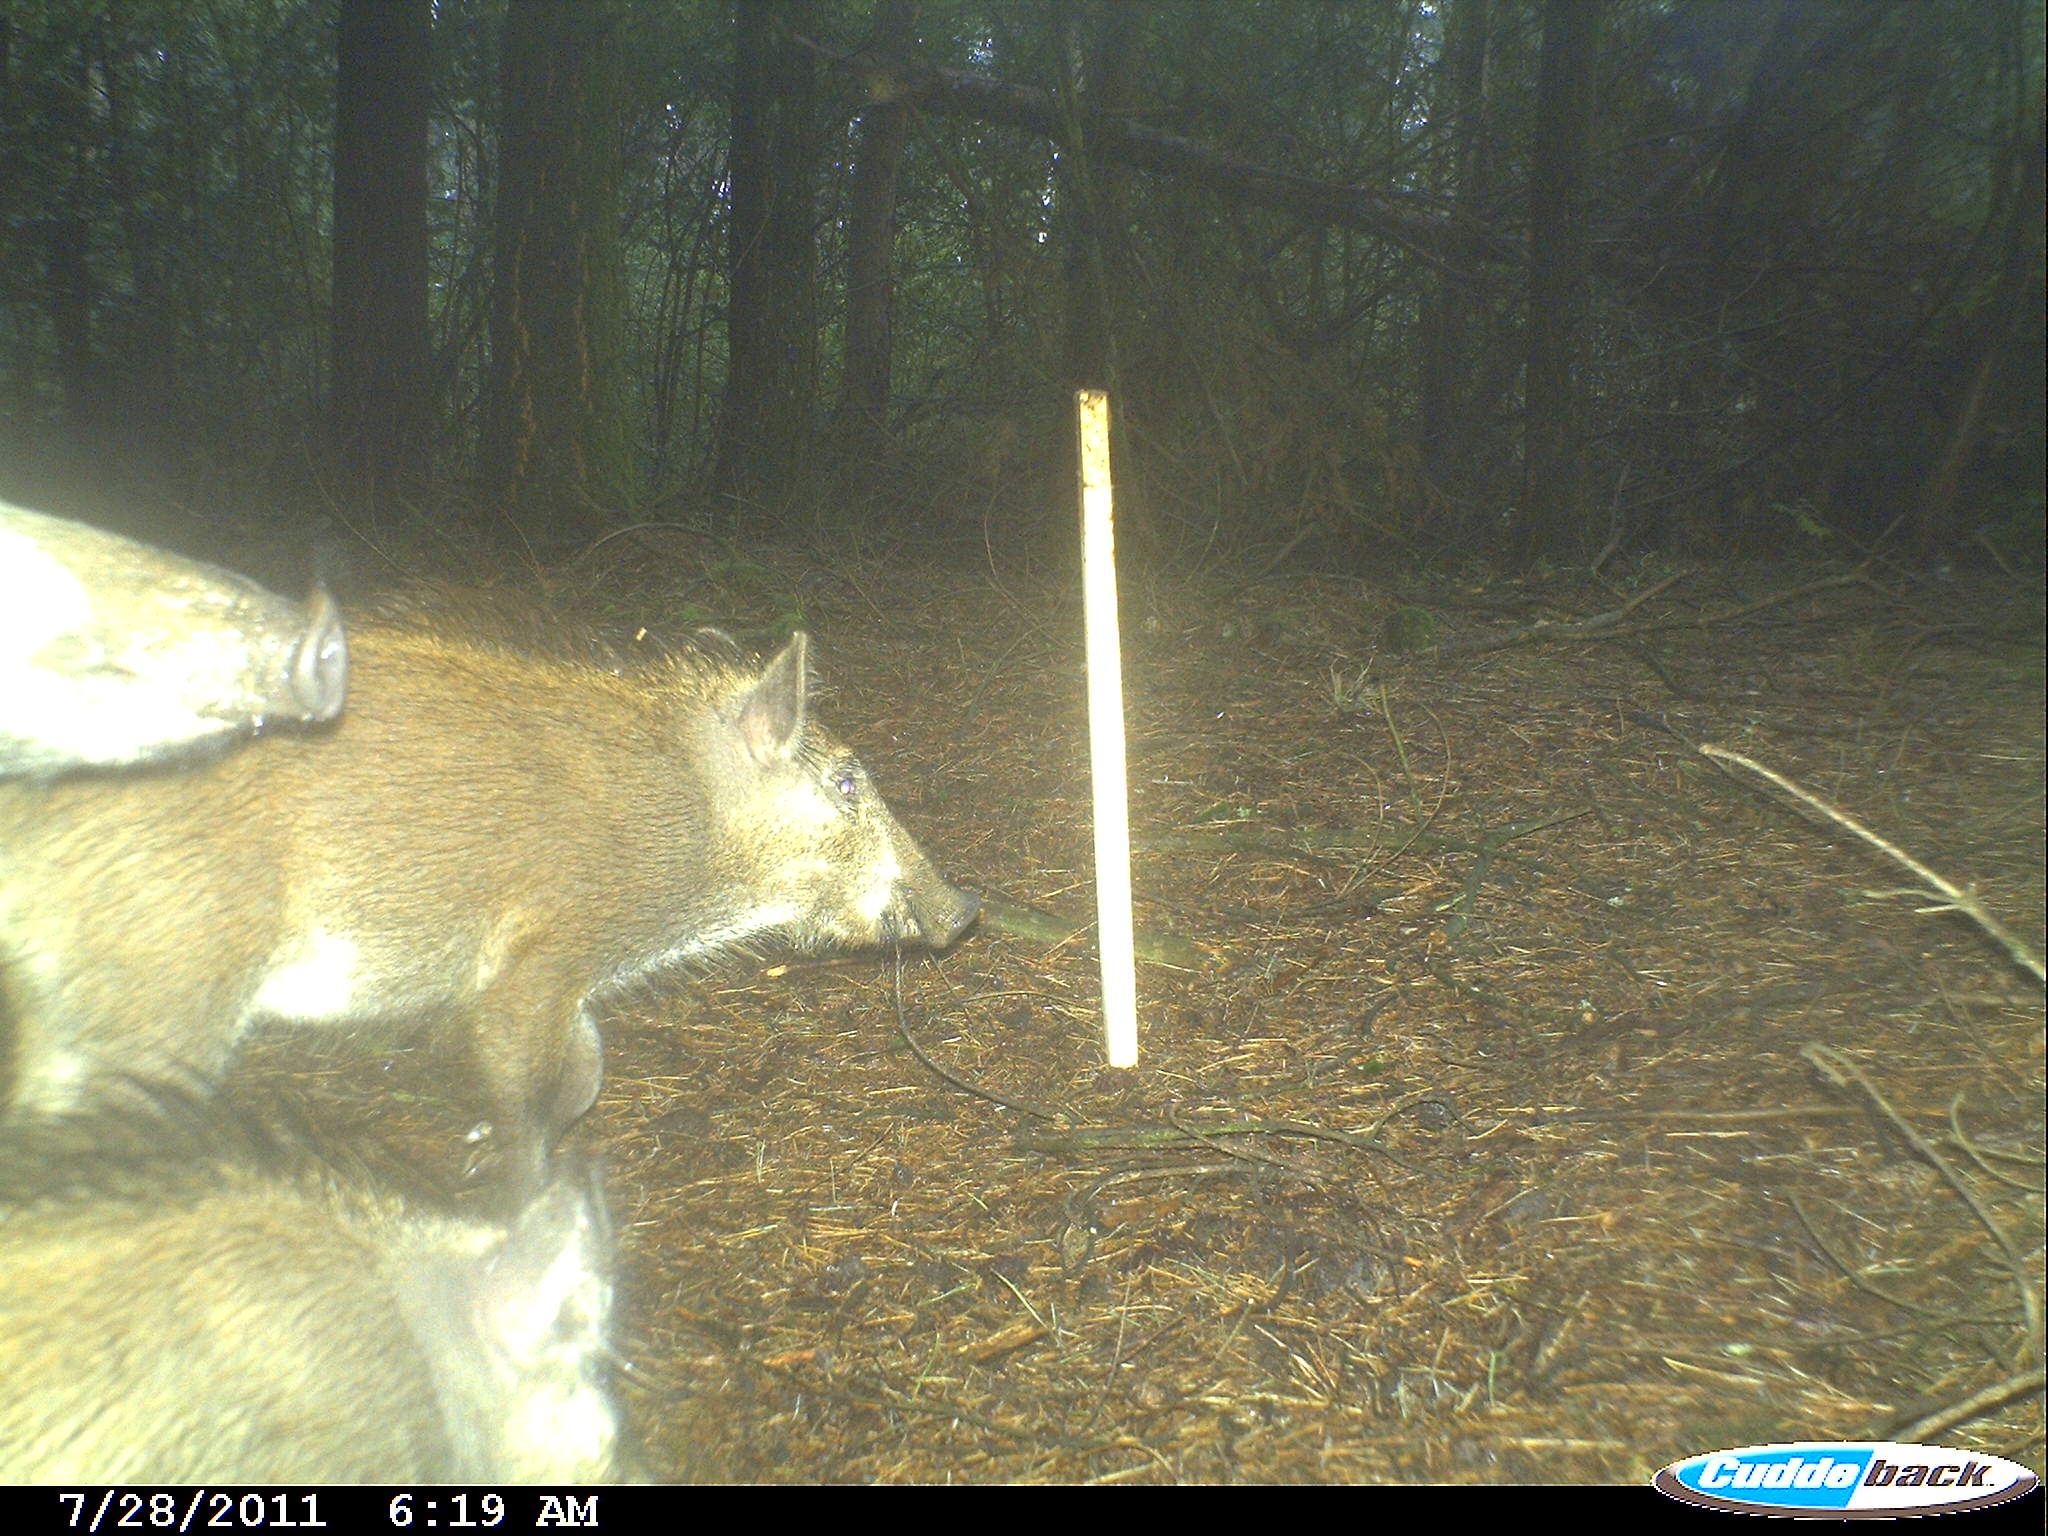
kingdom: Animalia
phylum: Chordata
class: Mammalia
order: Artiodactyla
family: Suidae
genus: Sus
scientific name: Sus scrofa
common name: Wild boar
